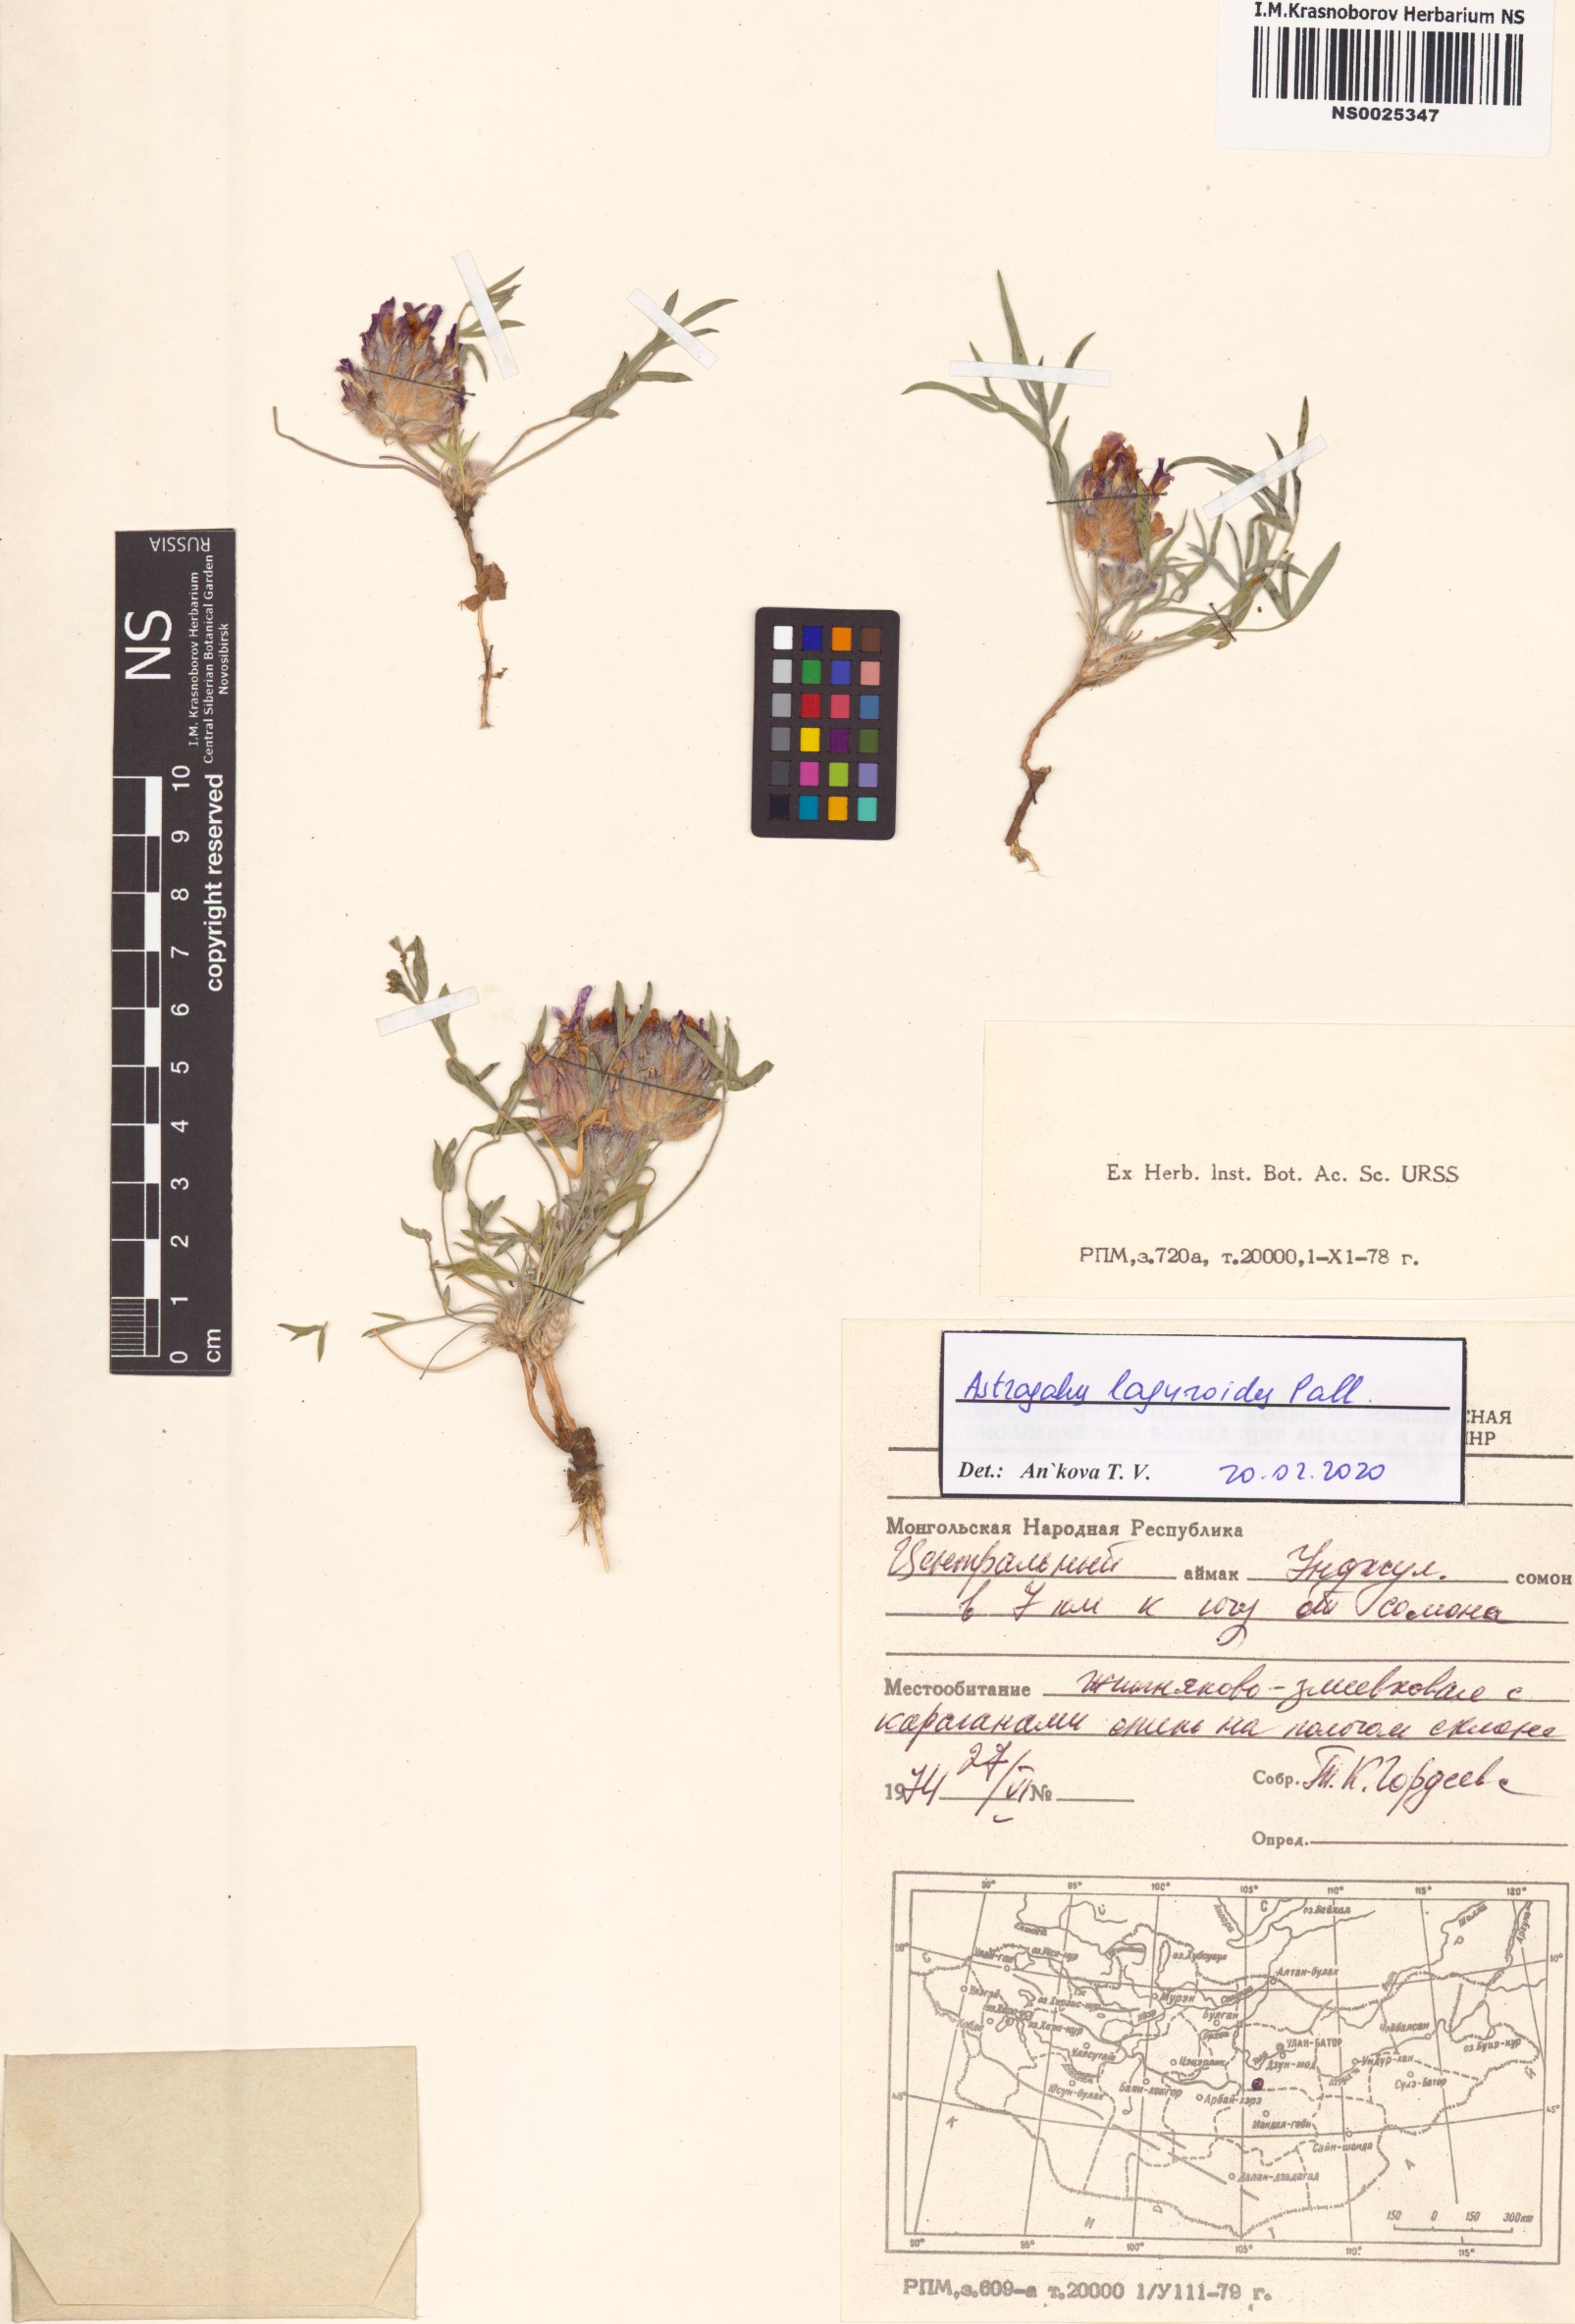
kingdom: Plantae
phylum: Tracheophyta
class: Magnoliopsida
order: Fabales
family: Fabaceae
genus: Astragalus
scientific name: Astragalus laguroides
